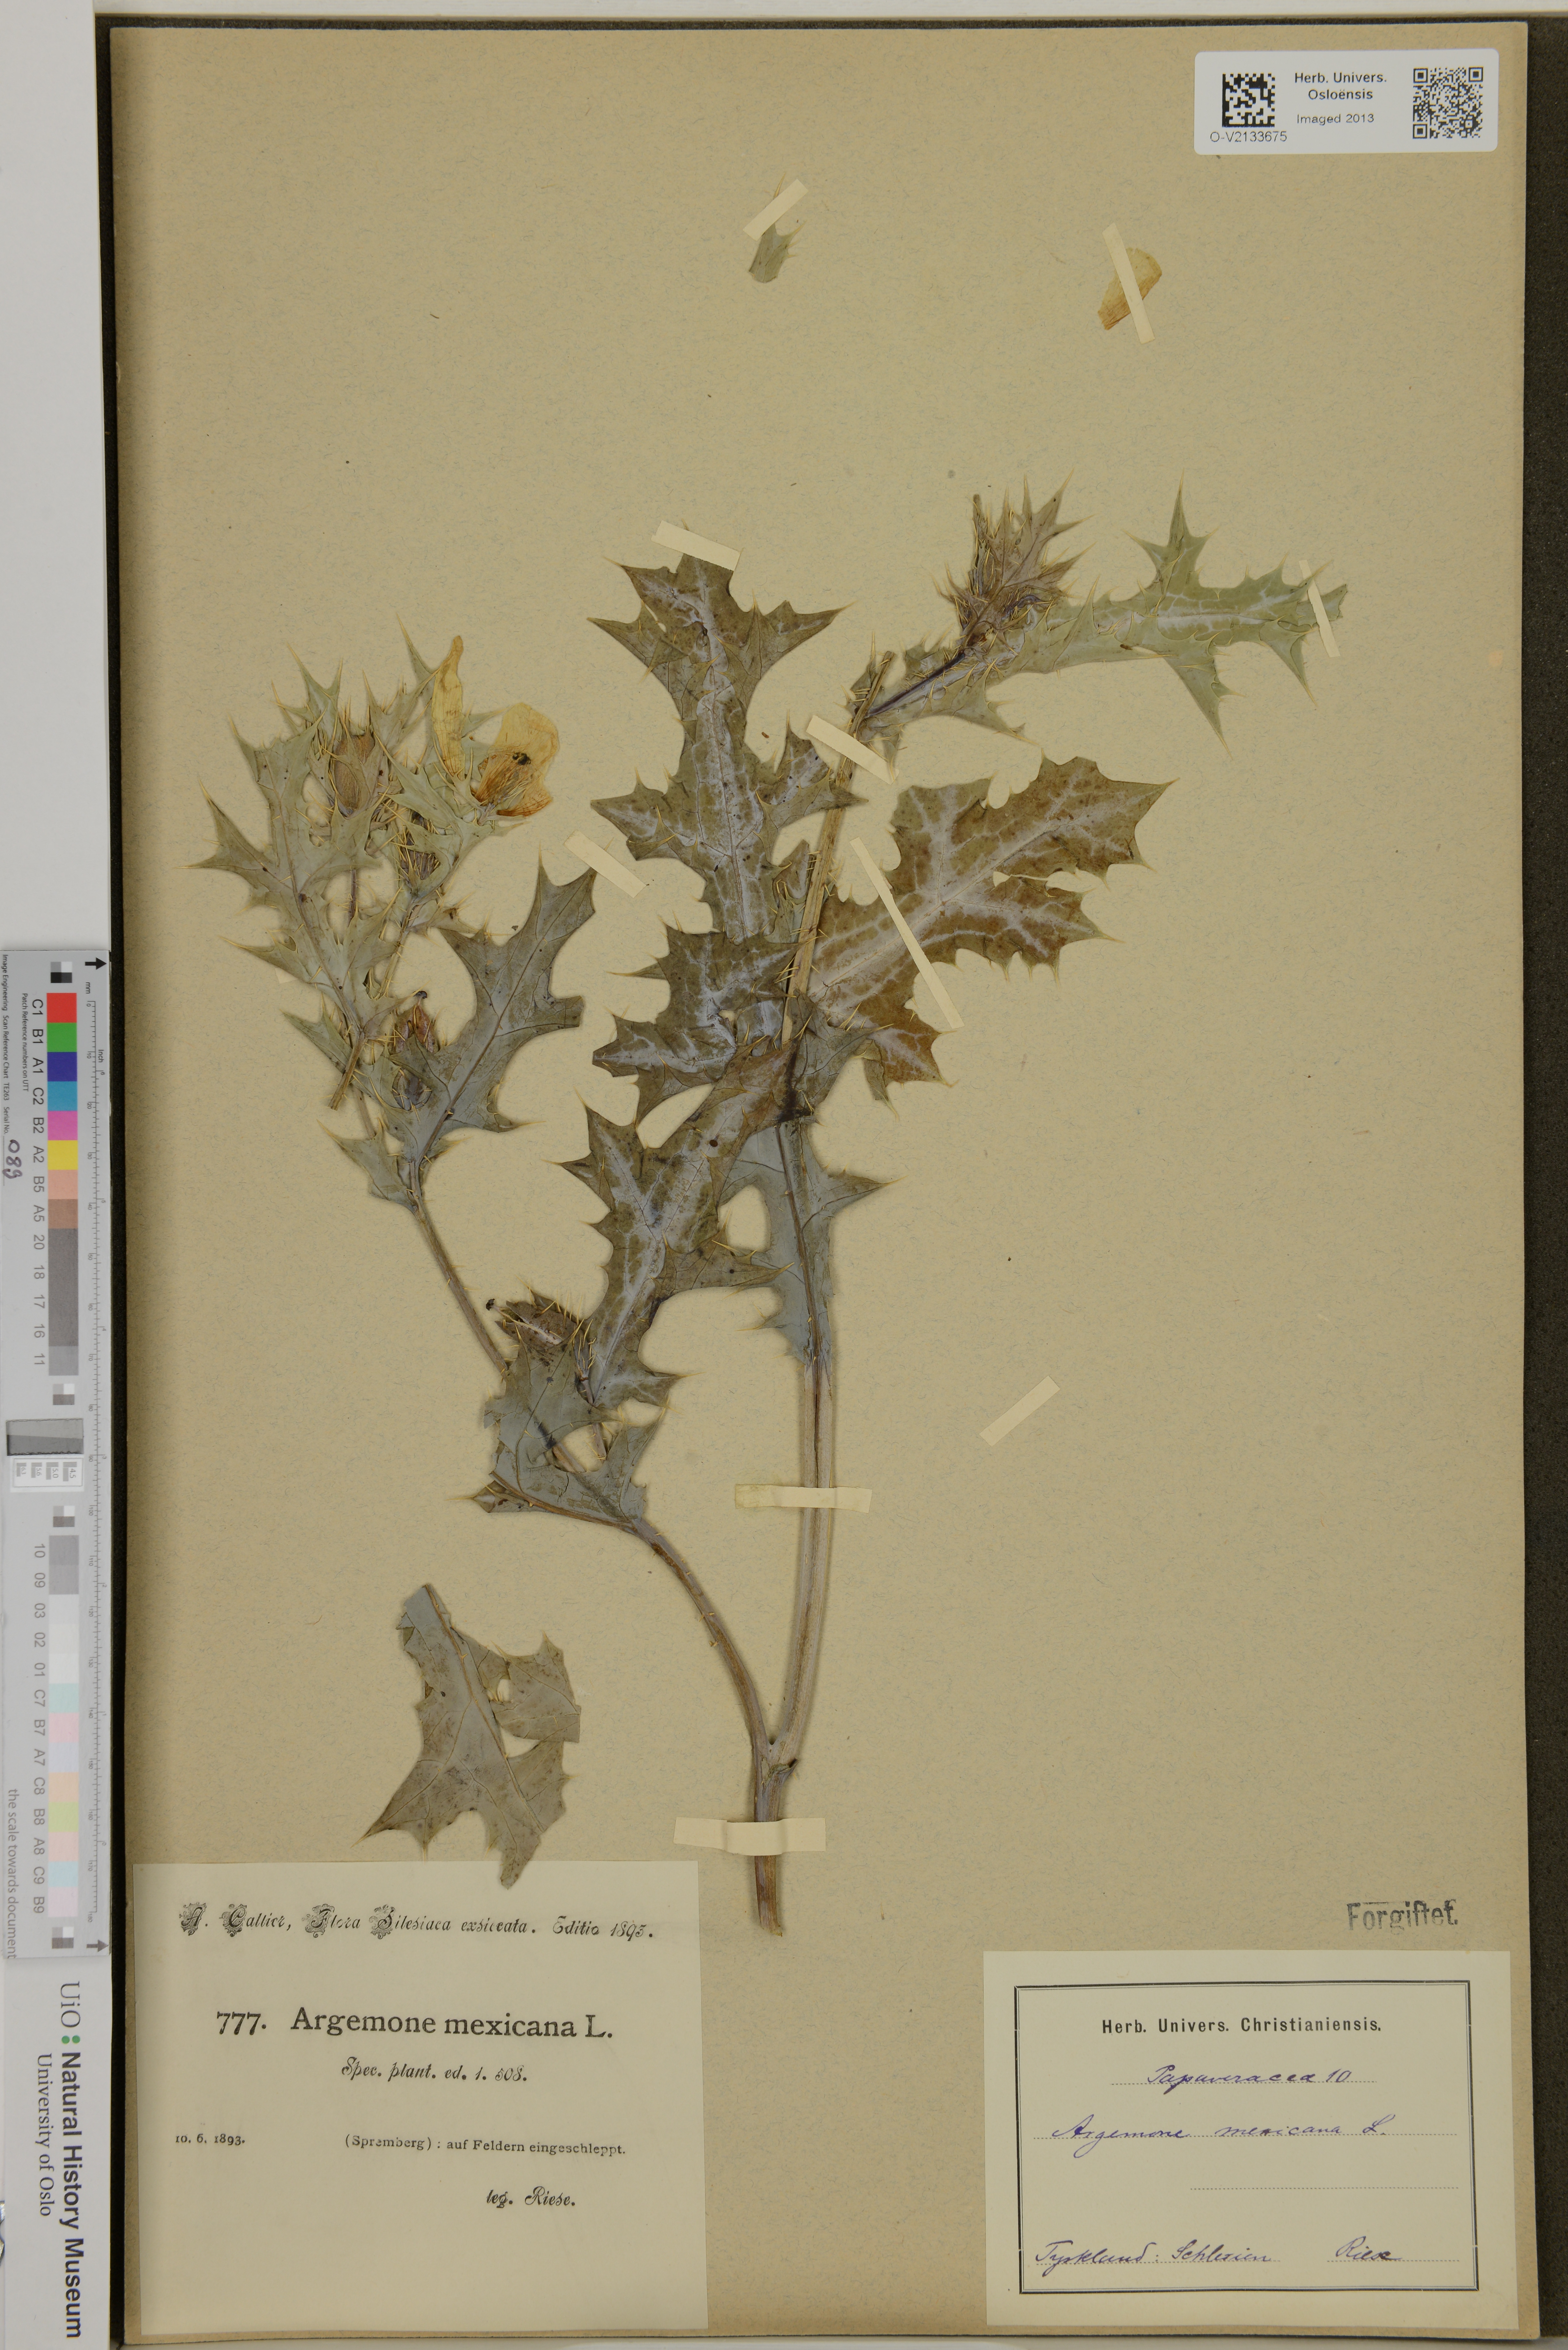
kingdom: Plantae
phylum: Tracheophyta
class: Magnoliopsida
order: Ranunculales
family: Papaveraceae
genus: Argemone
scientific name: Argemone mexicana
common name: Mexican poppy
